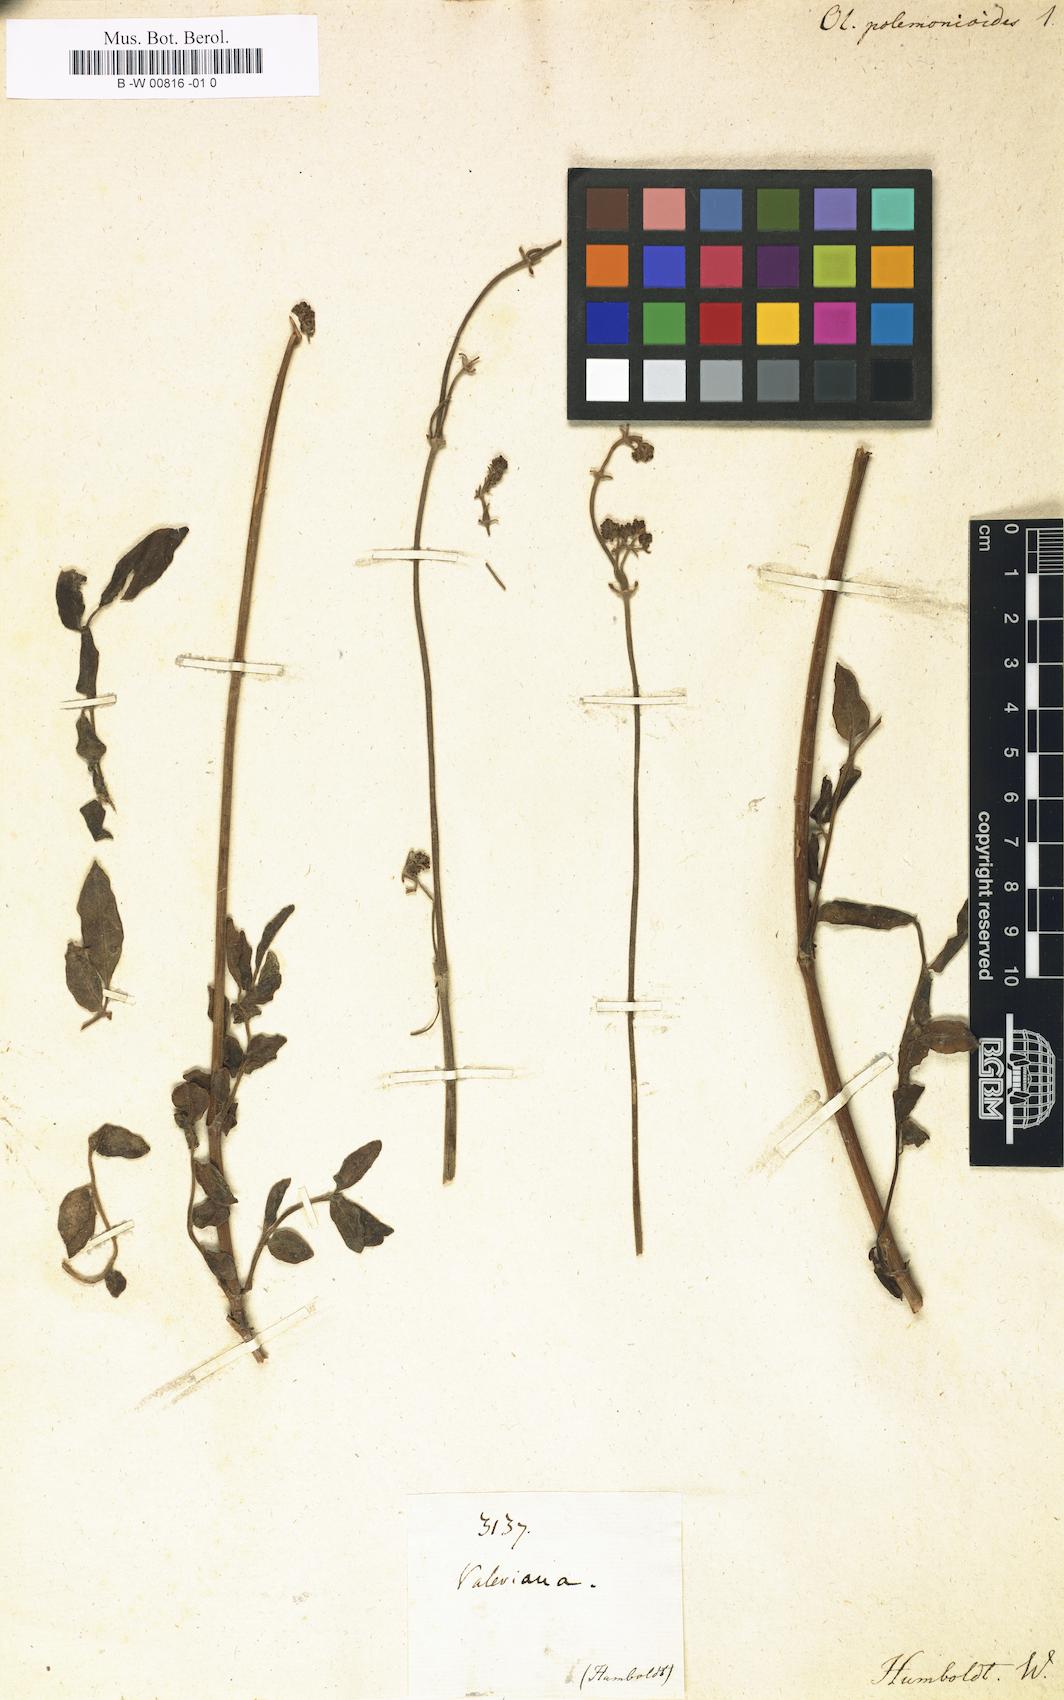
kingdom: Plantae
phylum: Tracheophyta
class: Magnoliopsida
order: Dipsacales
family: Caprifoliaceae
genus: Valeriana
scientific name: Valeriana
